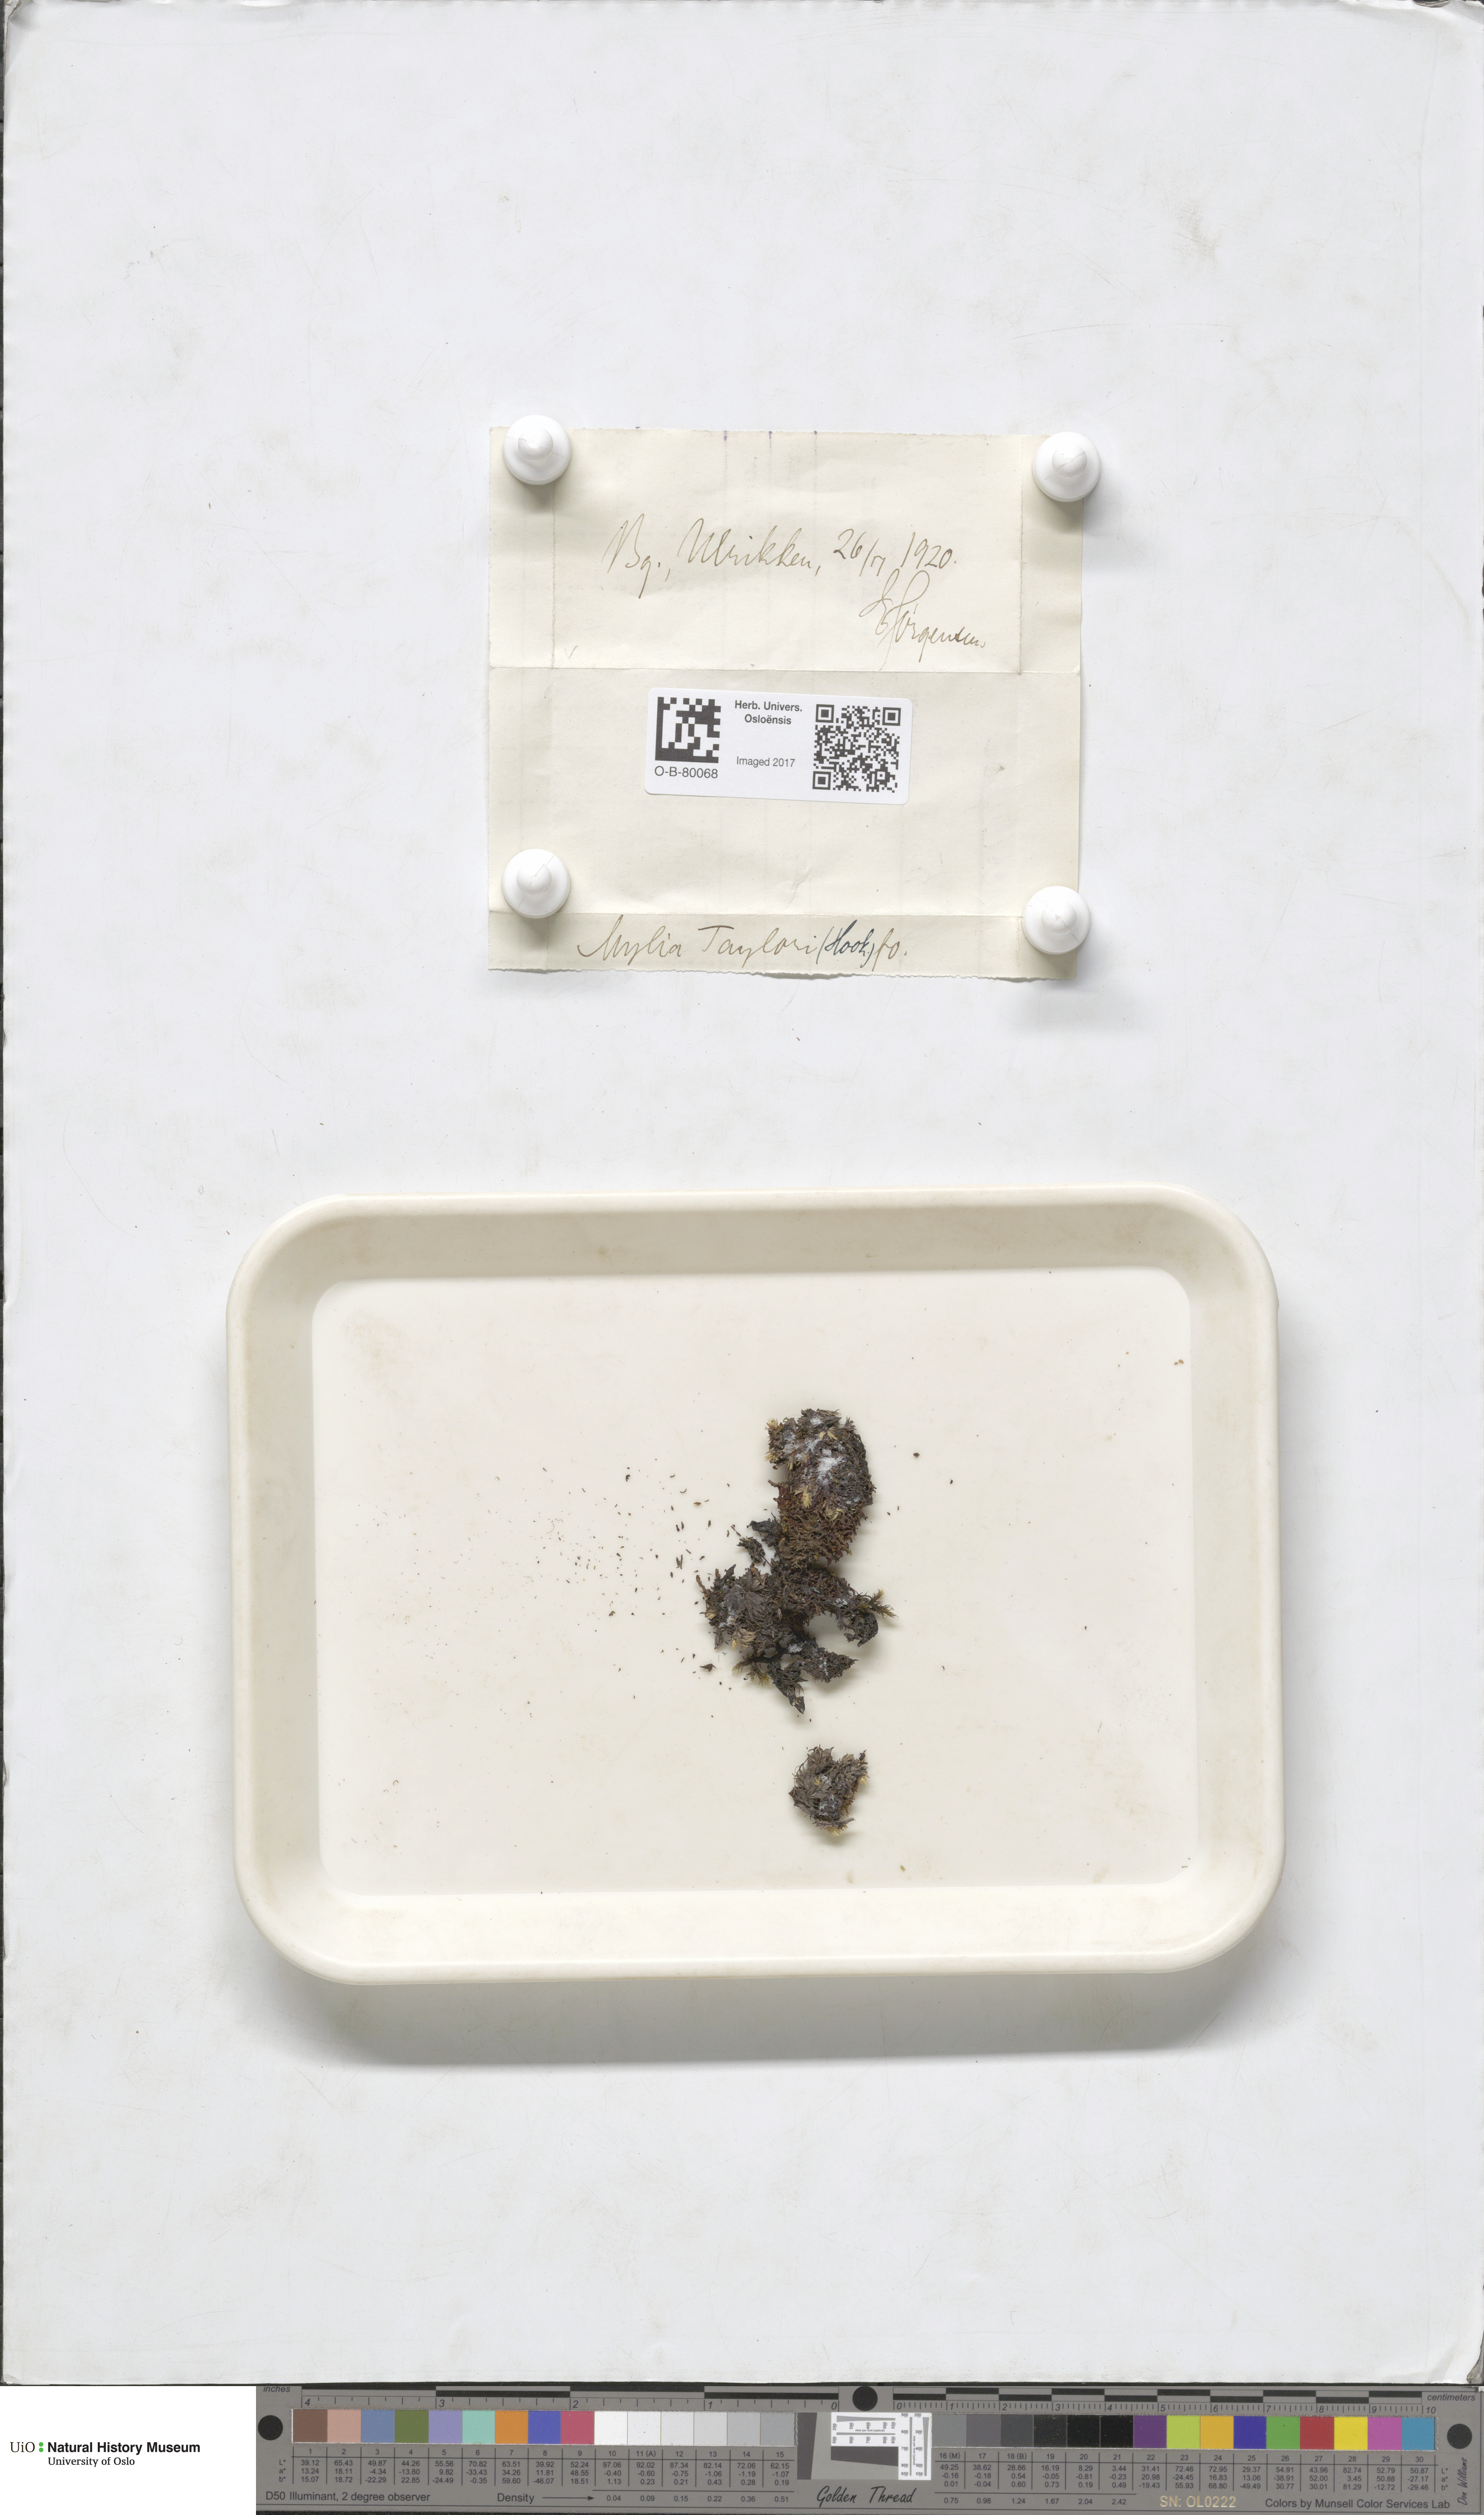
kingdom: Plantae
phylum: Marchantiophyta
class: Jungermanniopsida
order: Jungermanniales
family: Myliaceae
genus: Mylia
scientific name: Mylia taylorii
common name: Taylor s flapwort
